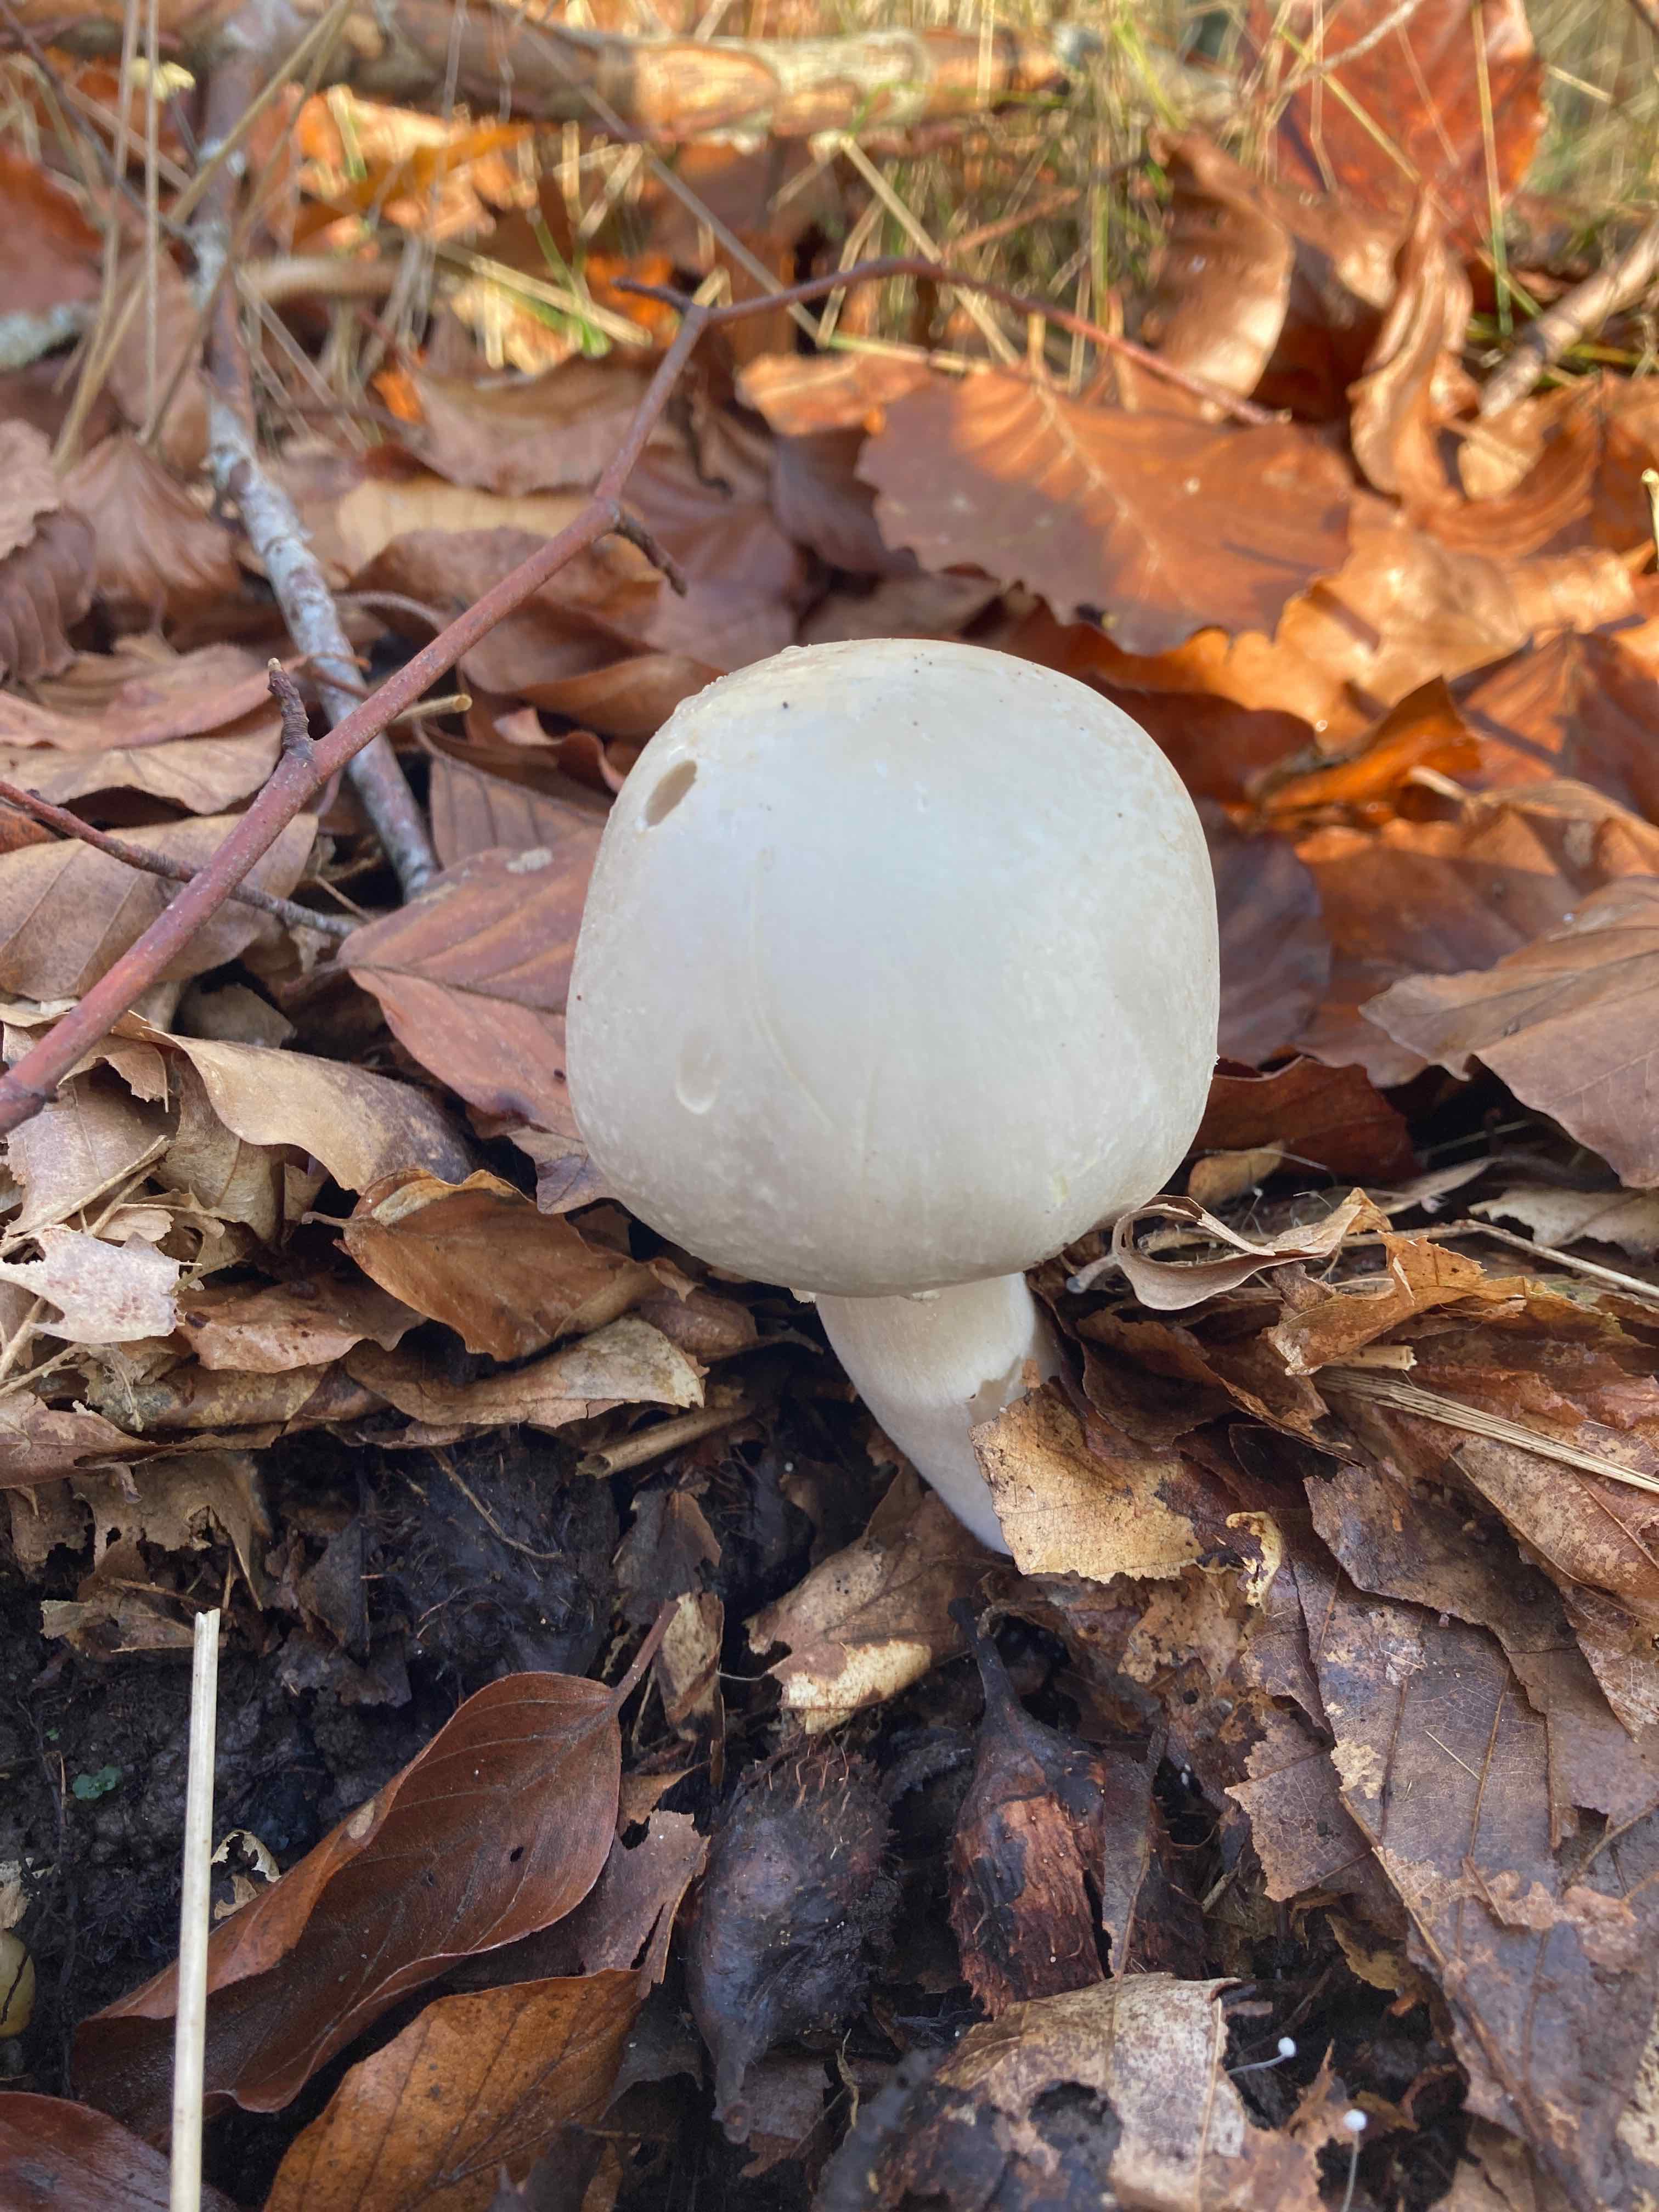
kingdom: Fungi
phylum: Basidiomycota
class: Agaricomycetes
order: Agaricales
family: Agaricaceae
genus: Agaricus
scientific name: Agaricus
